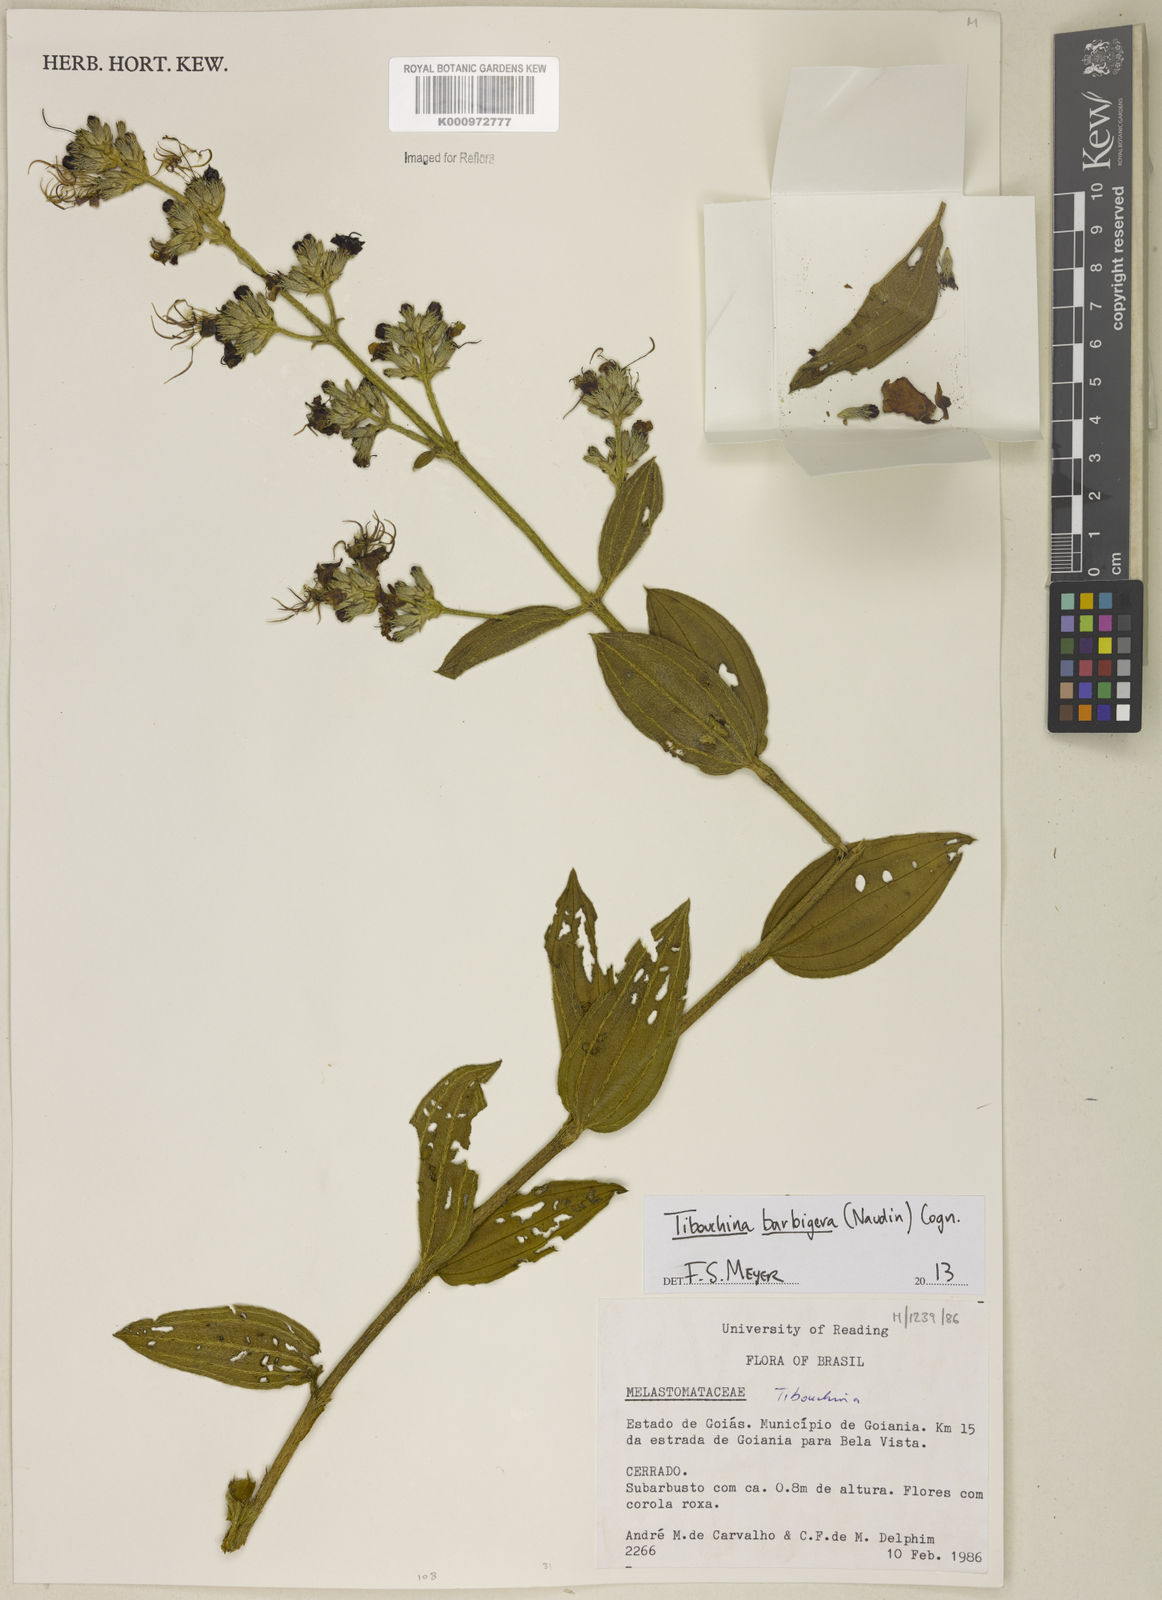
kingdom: Plantae
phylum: Tracheophyta
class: Magnoliopsida
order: Myrtales
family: Melastomataceae
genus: Pleroma
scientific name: Pleroma barbigerum
